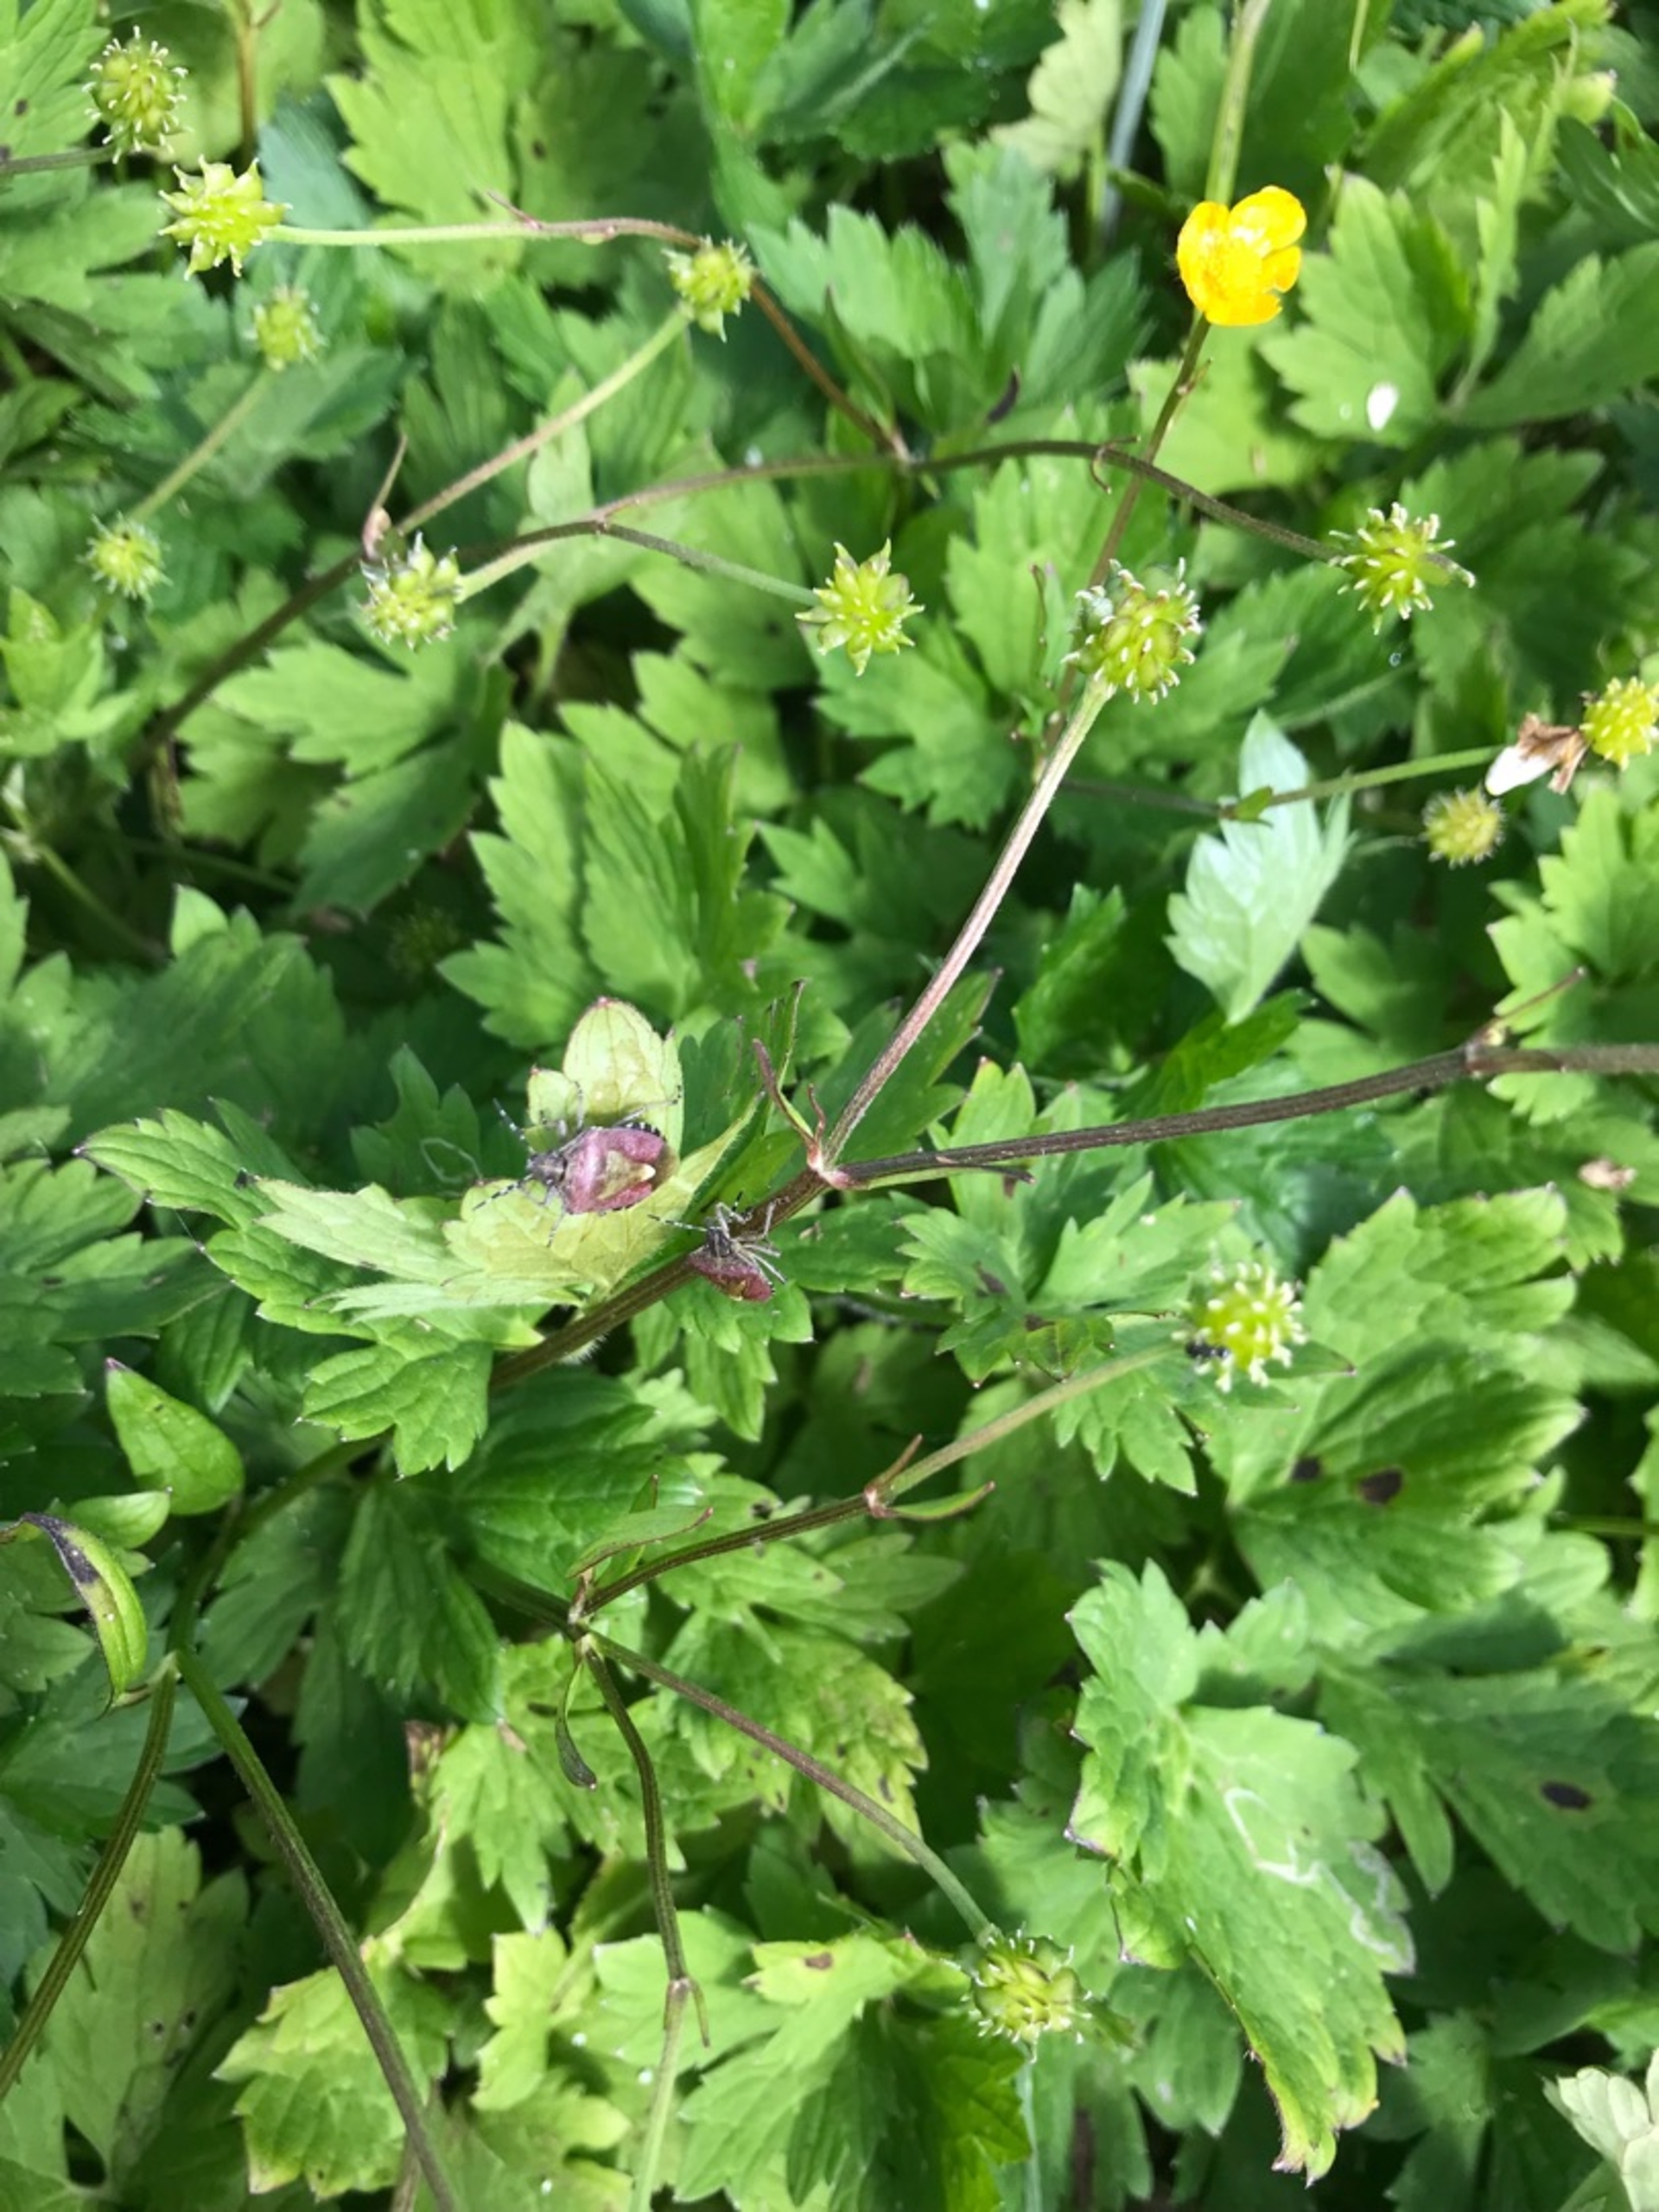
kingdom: Animalia
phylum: Arthropoda
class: Insecta
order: Hemiptera
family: Pentatomidae
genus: Dolycoris
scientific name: Dolycoris baccarum
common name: Almindelig bærtæge
